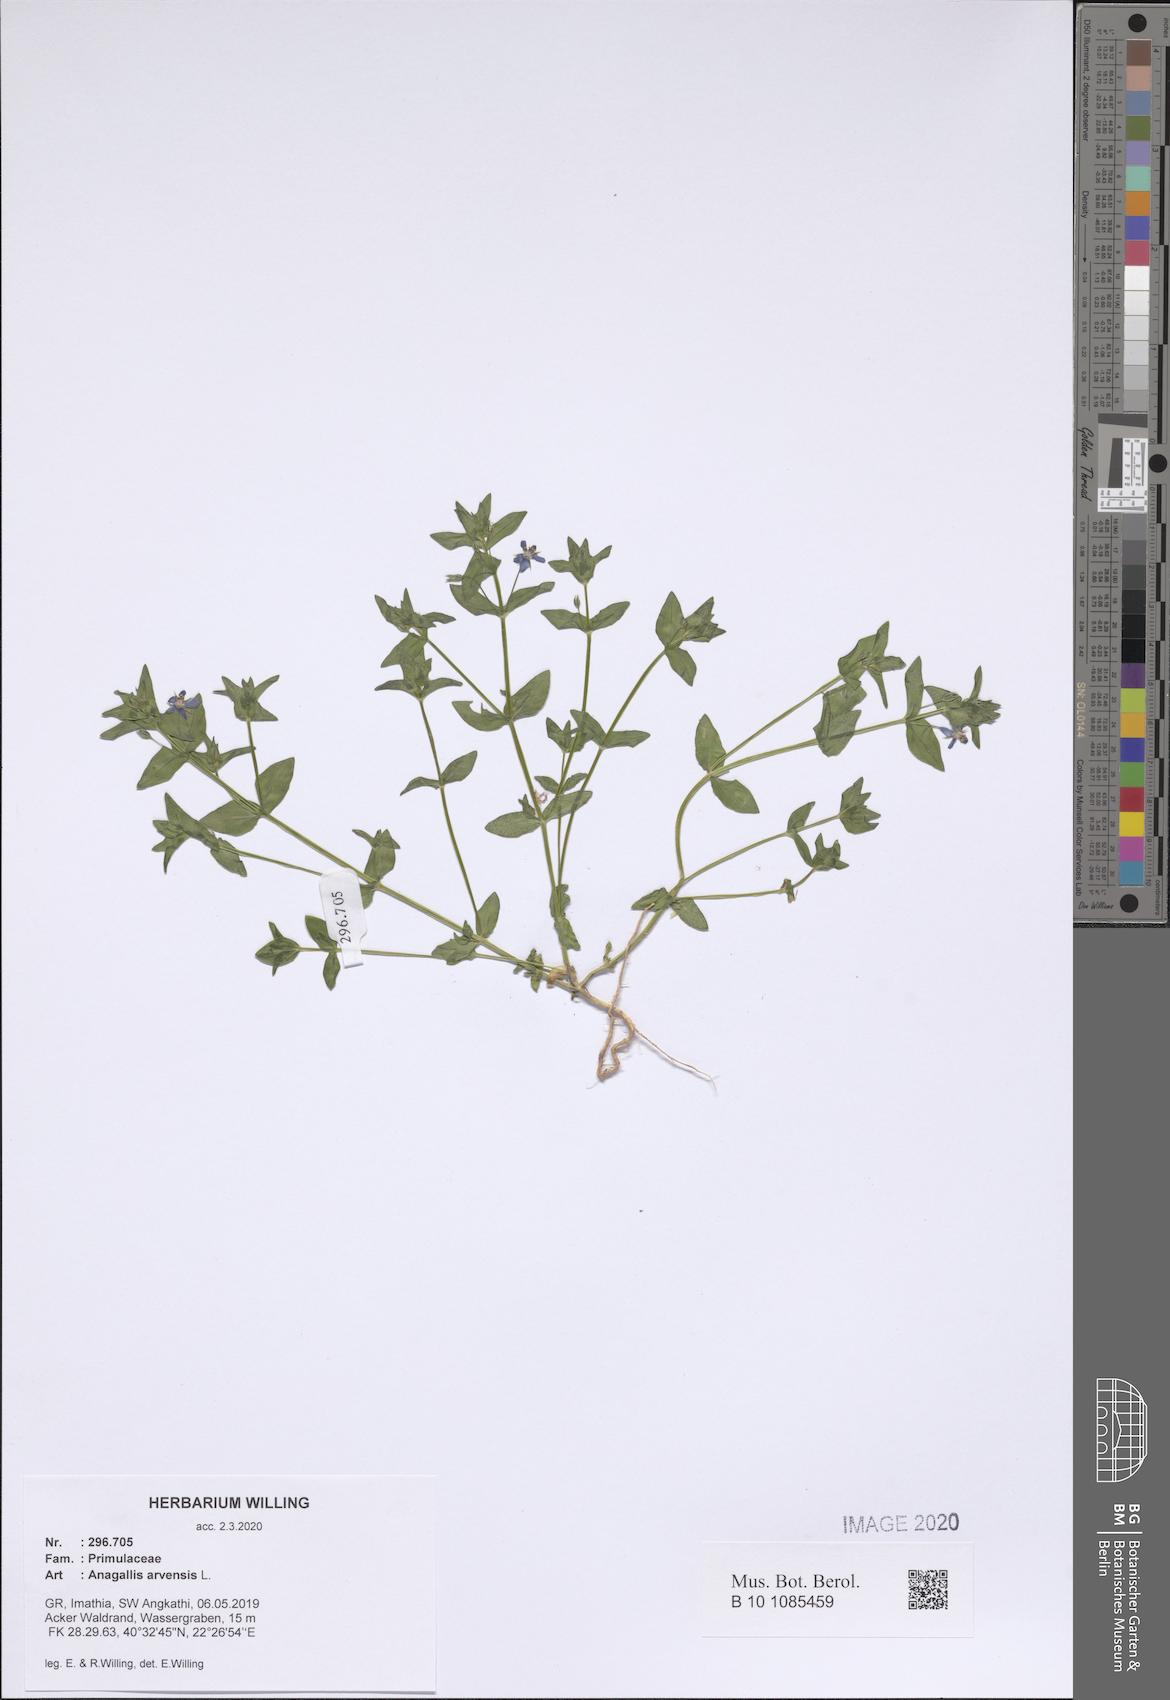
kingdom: Plantae
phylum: Tracheophyta
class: Magnoliopsida
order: Ericales
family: Primulaceae
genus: Lysimachia
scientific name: Lysimachia arvensis
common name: Scarlet pimpernel
